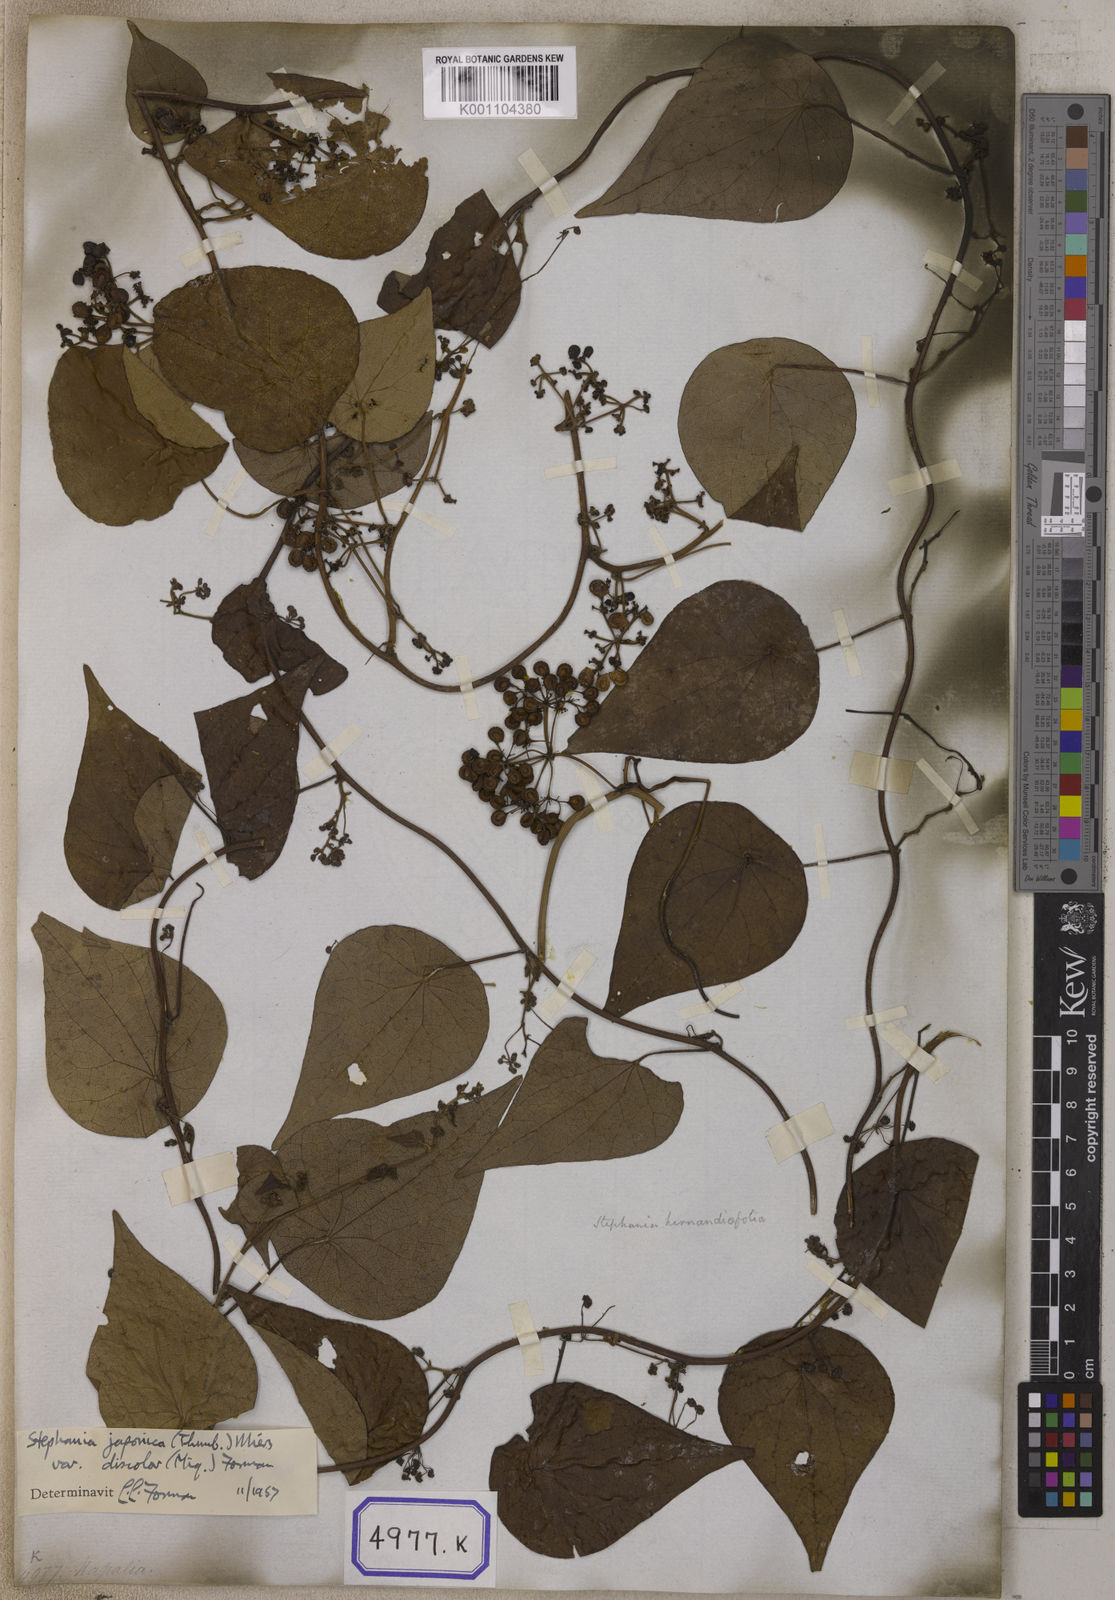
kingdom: Plantae
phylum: Tracheophyta
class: Magnoliopsida
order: Ranunculales
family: Menispermaceae
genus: Stephania
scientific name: Stephania japonica
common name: Snake vine
